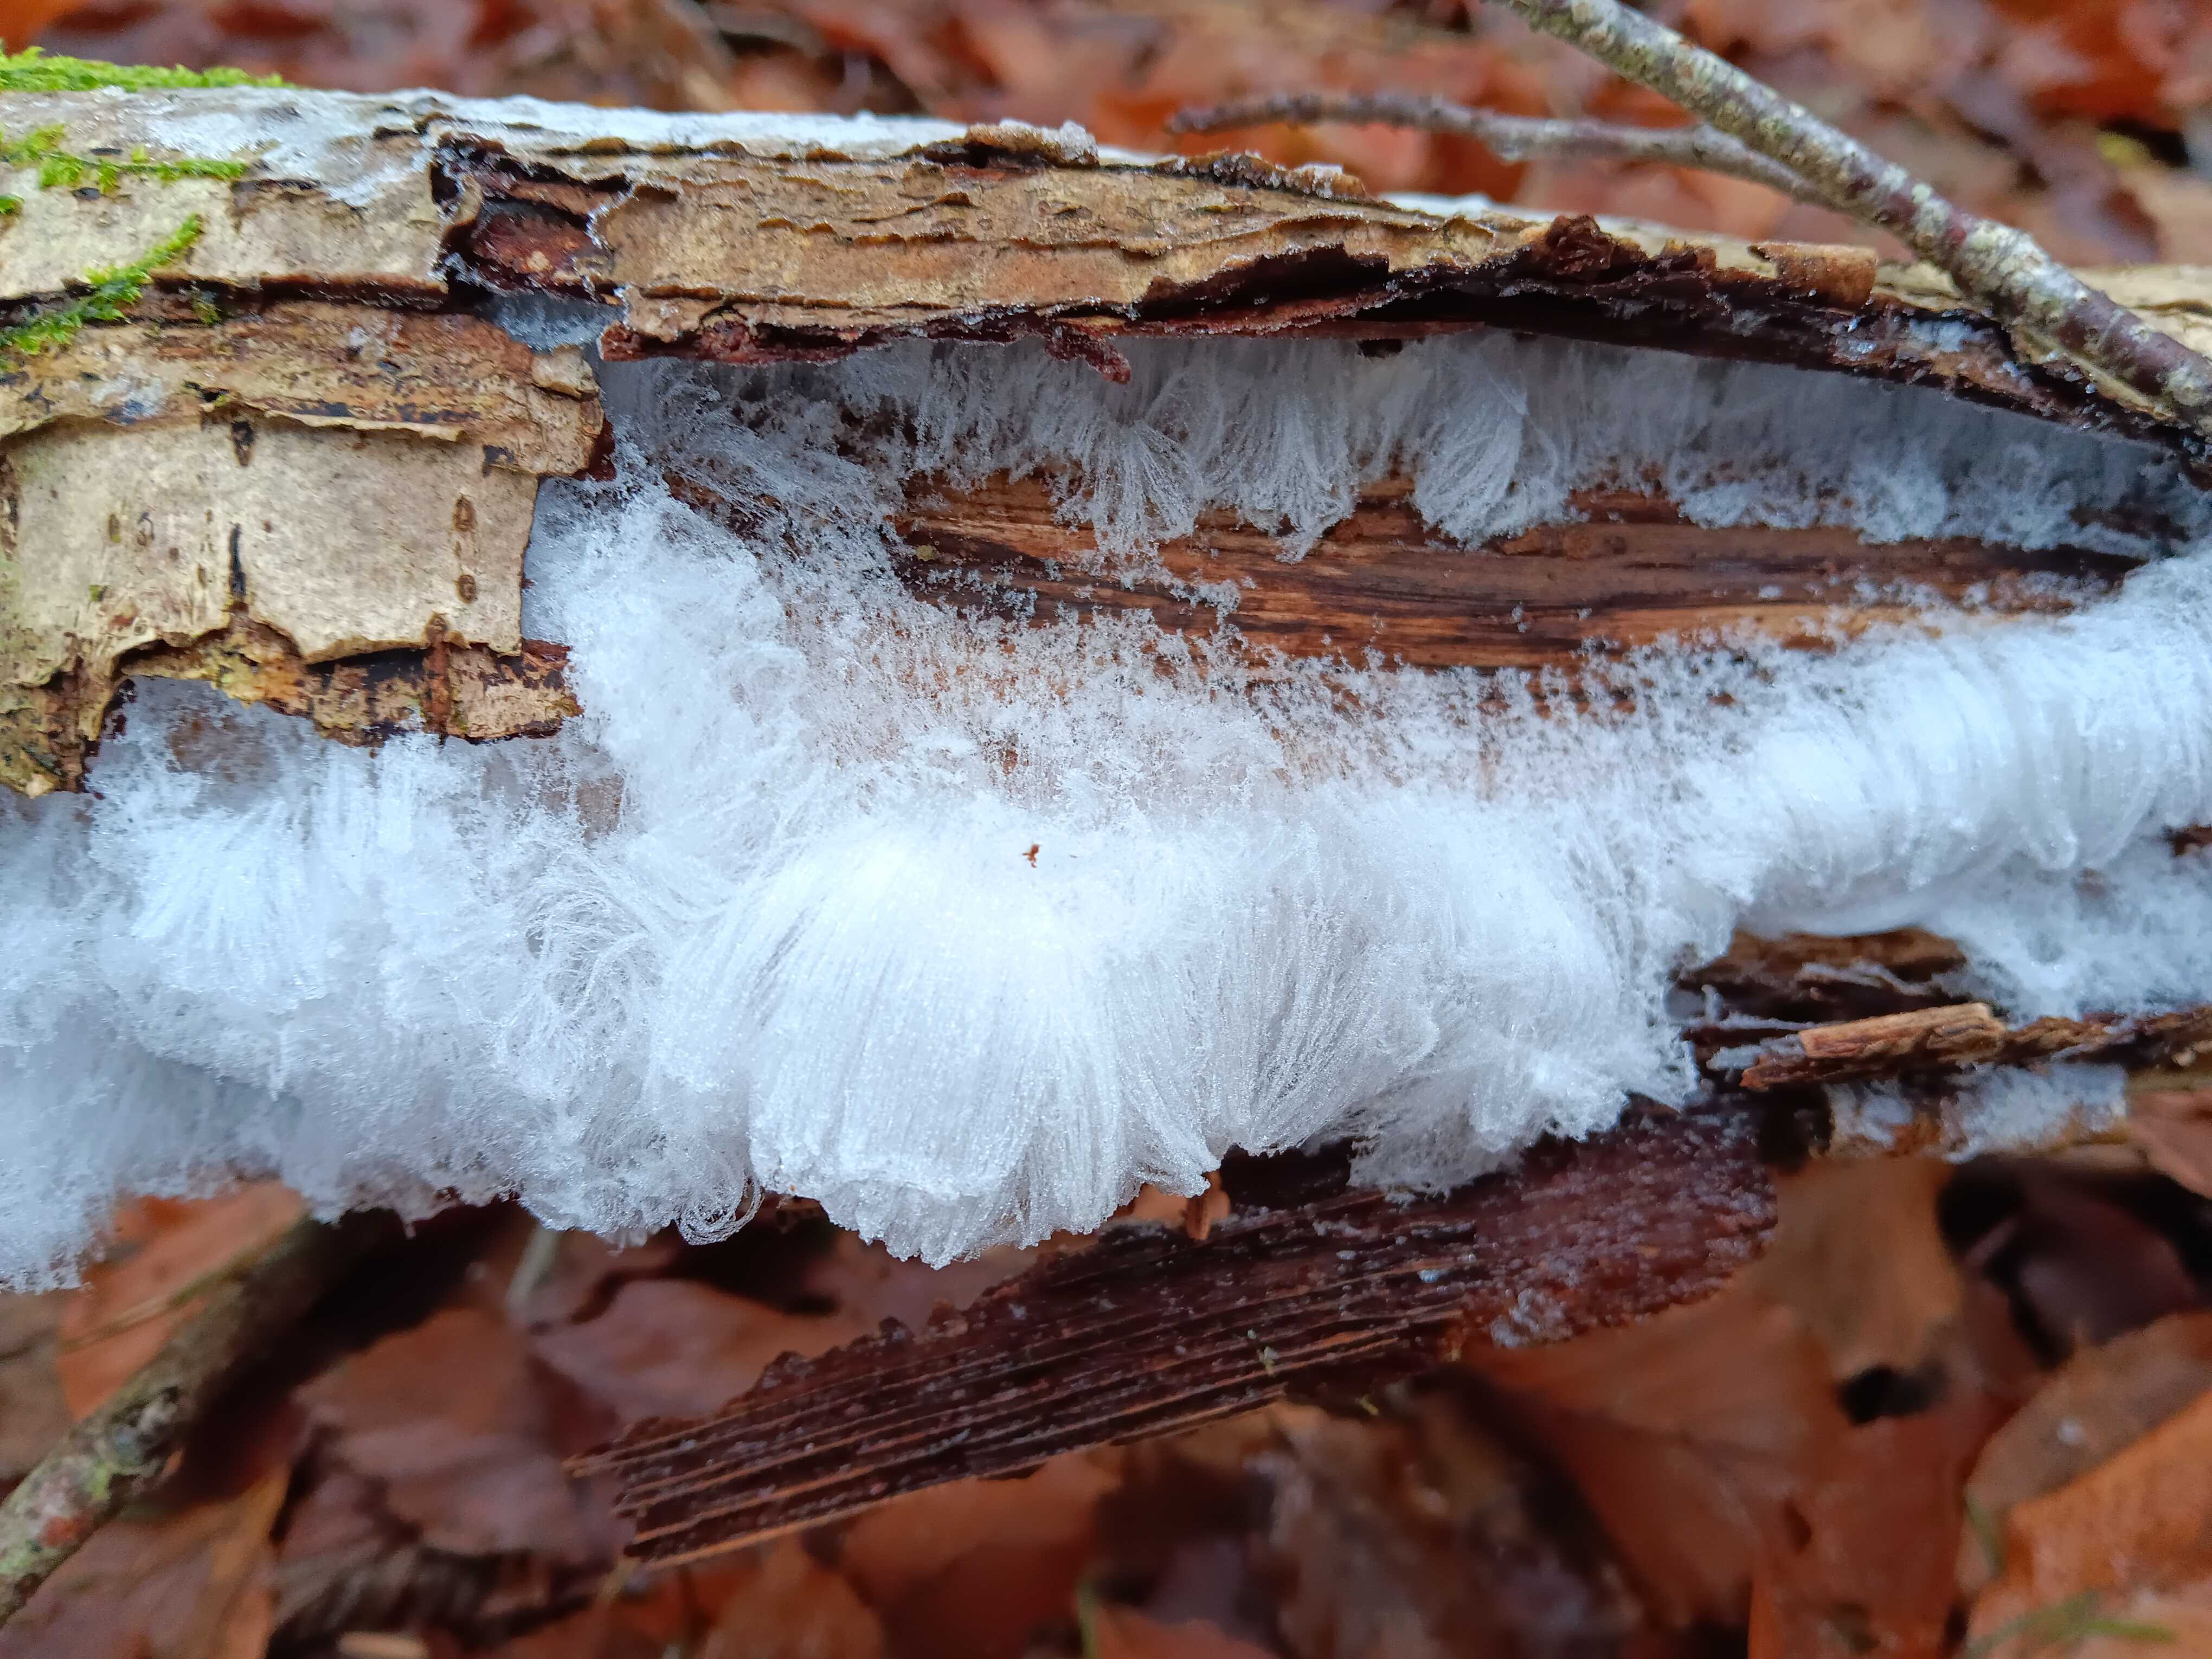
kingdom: Fungi
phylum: Basidiomycota
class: Tremellomycetes
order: Tremellales
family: Exidiaceae
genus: Exidiopsis
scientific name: Exidiopsis effusa
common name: smuk bævrehinde
